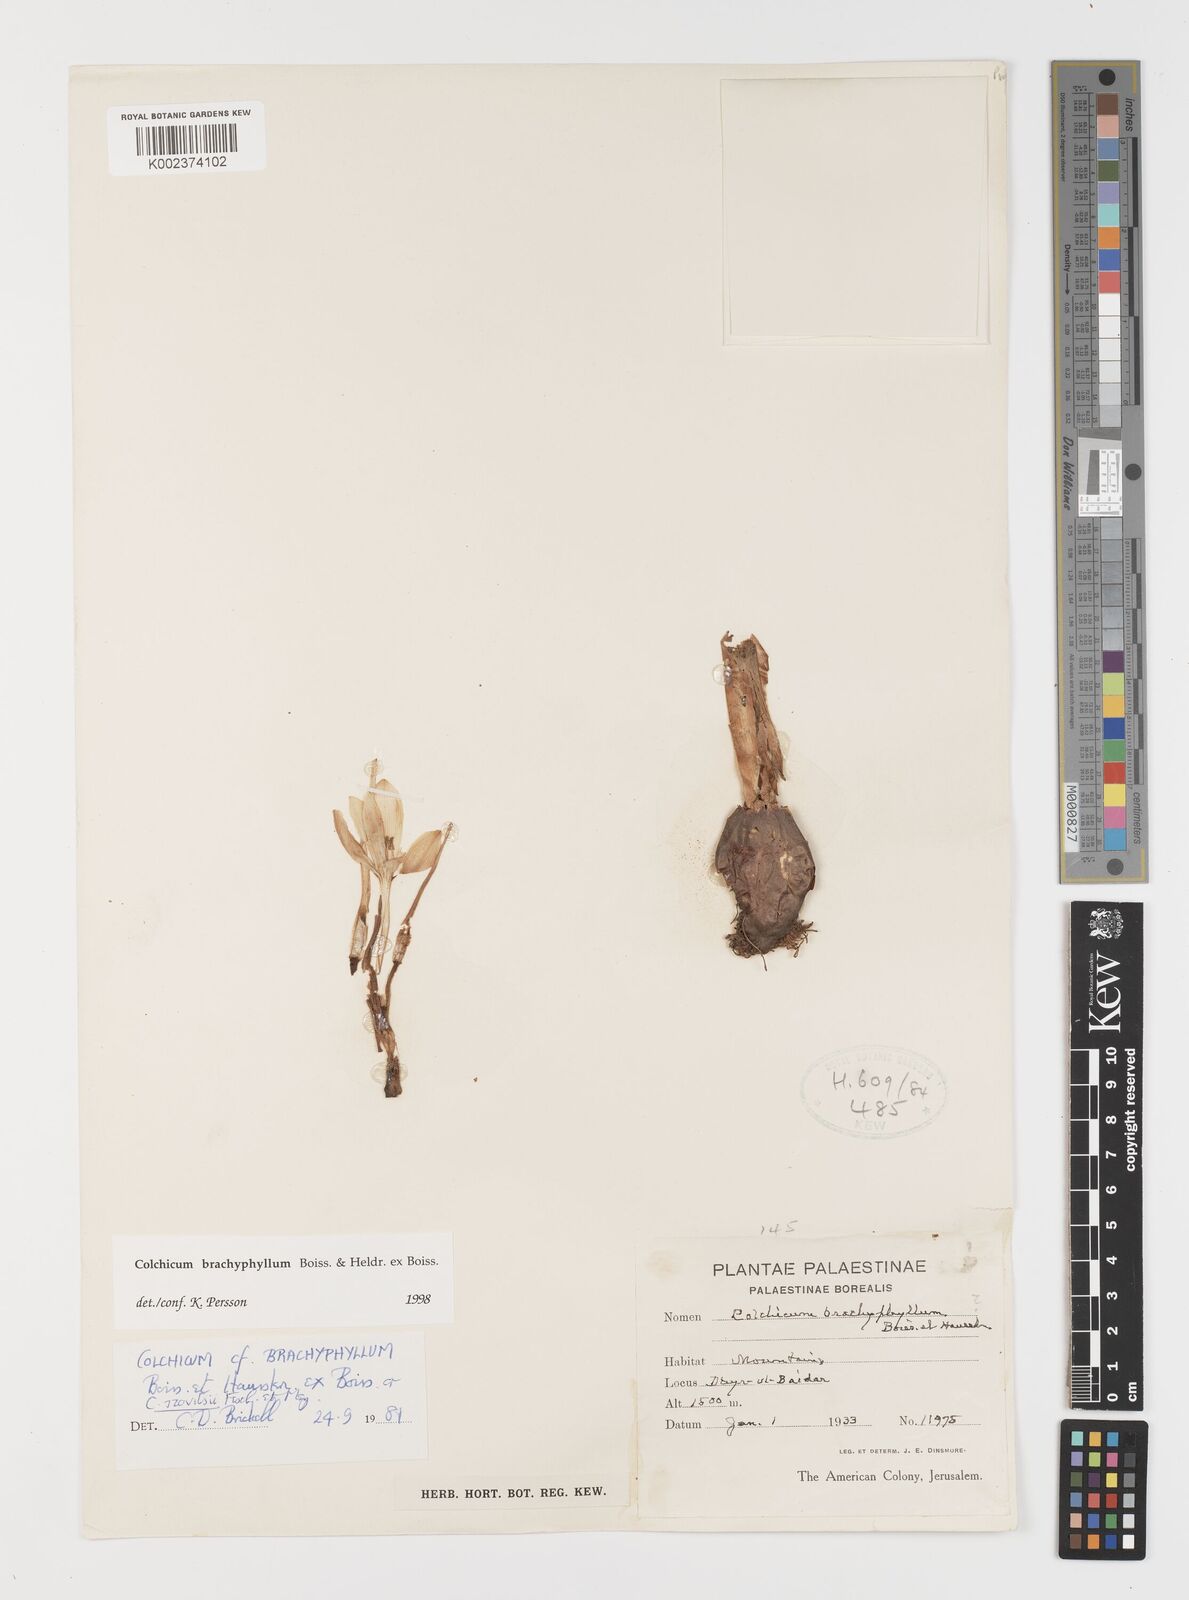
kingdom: Plantae
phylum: Tracheophyta
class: Liliopsida
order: Liliales
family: Colchicaceae
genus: Colchicum
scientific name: Colchicum szovitsii
